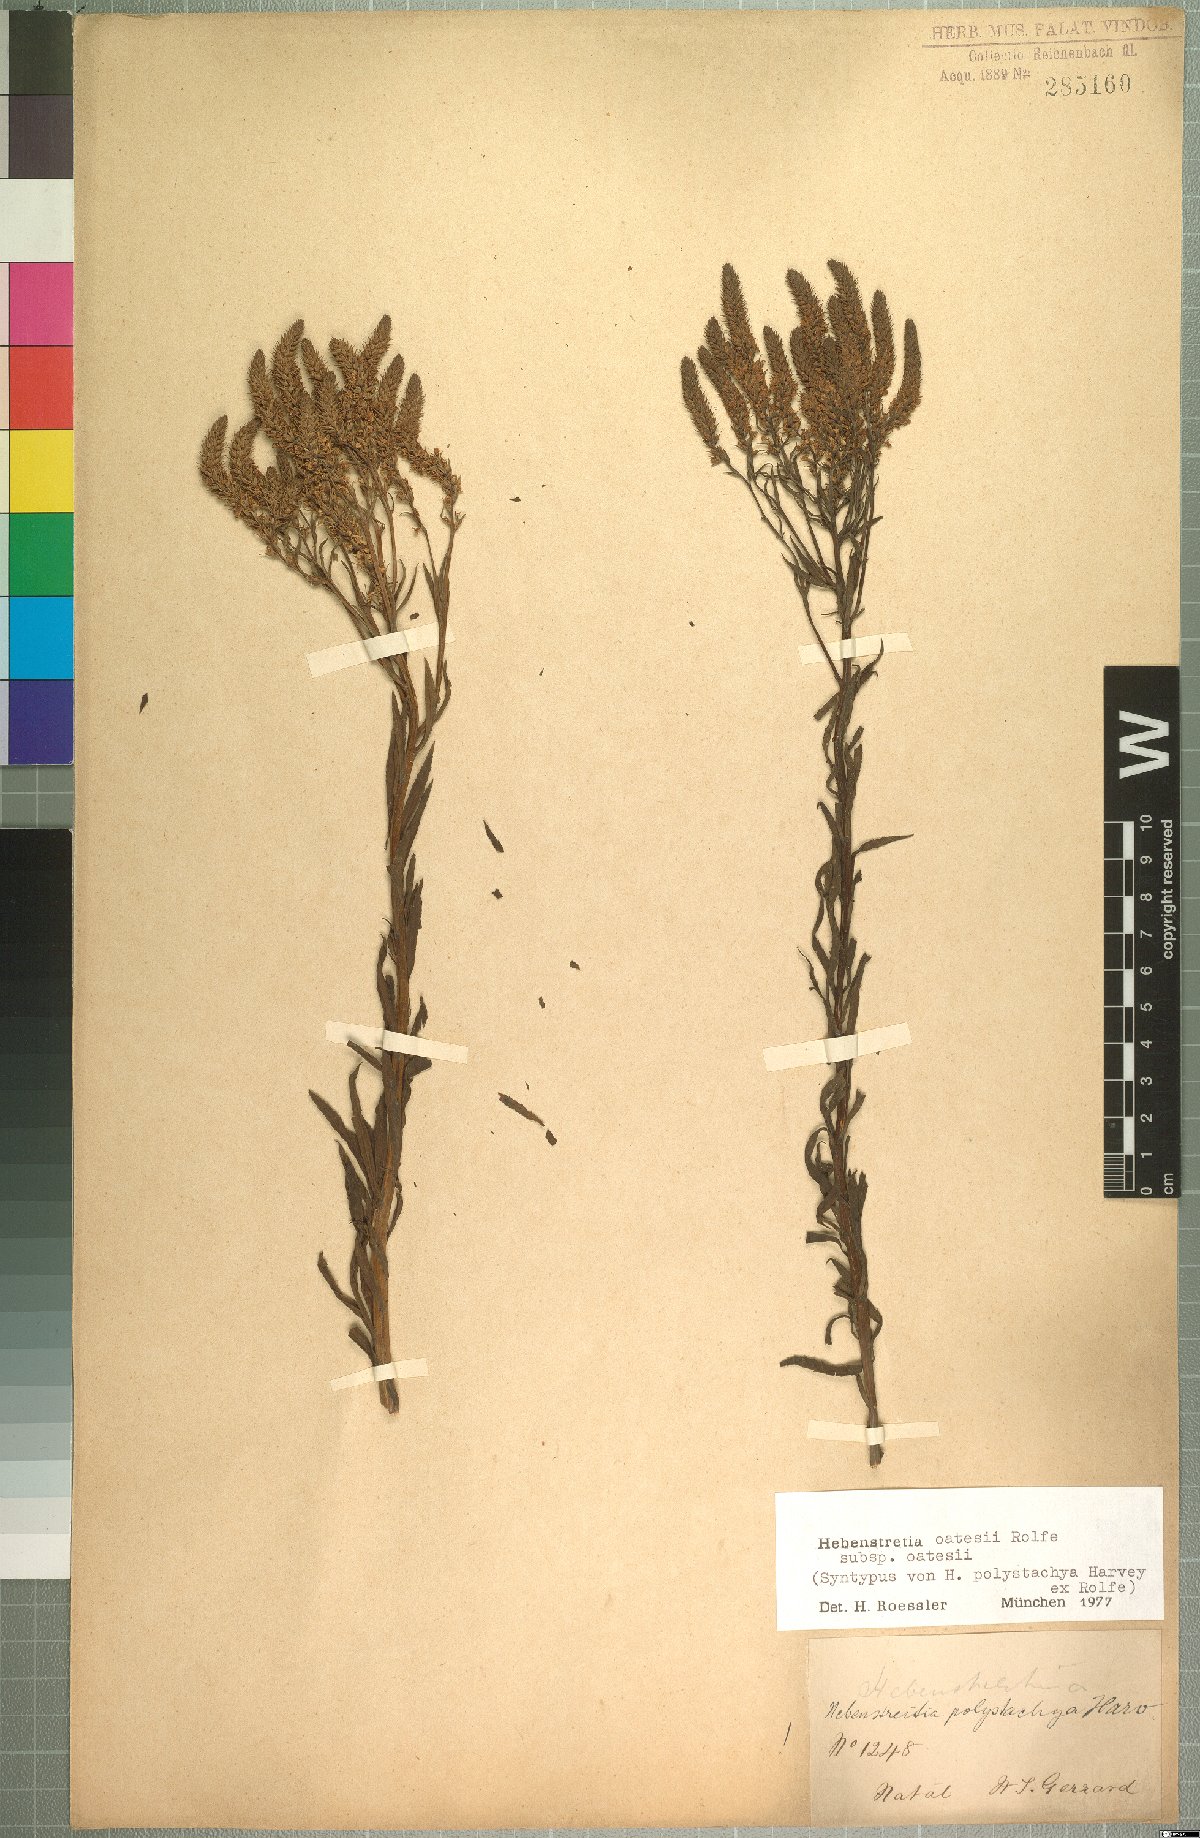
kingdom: Plantae
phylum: Tracheophyta
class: Magnoliopsida
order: Lamiales
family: Scrophulariaceae
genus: Hebenstretia
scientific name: Hebenstretia oatesii
